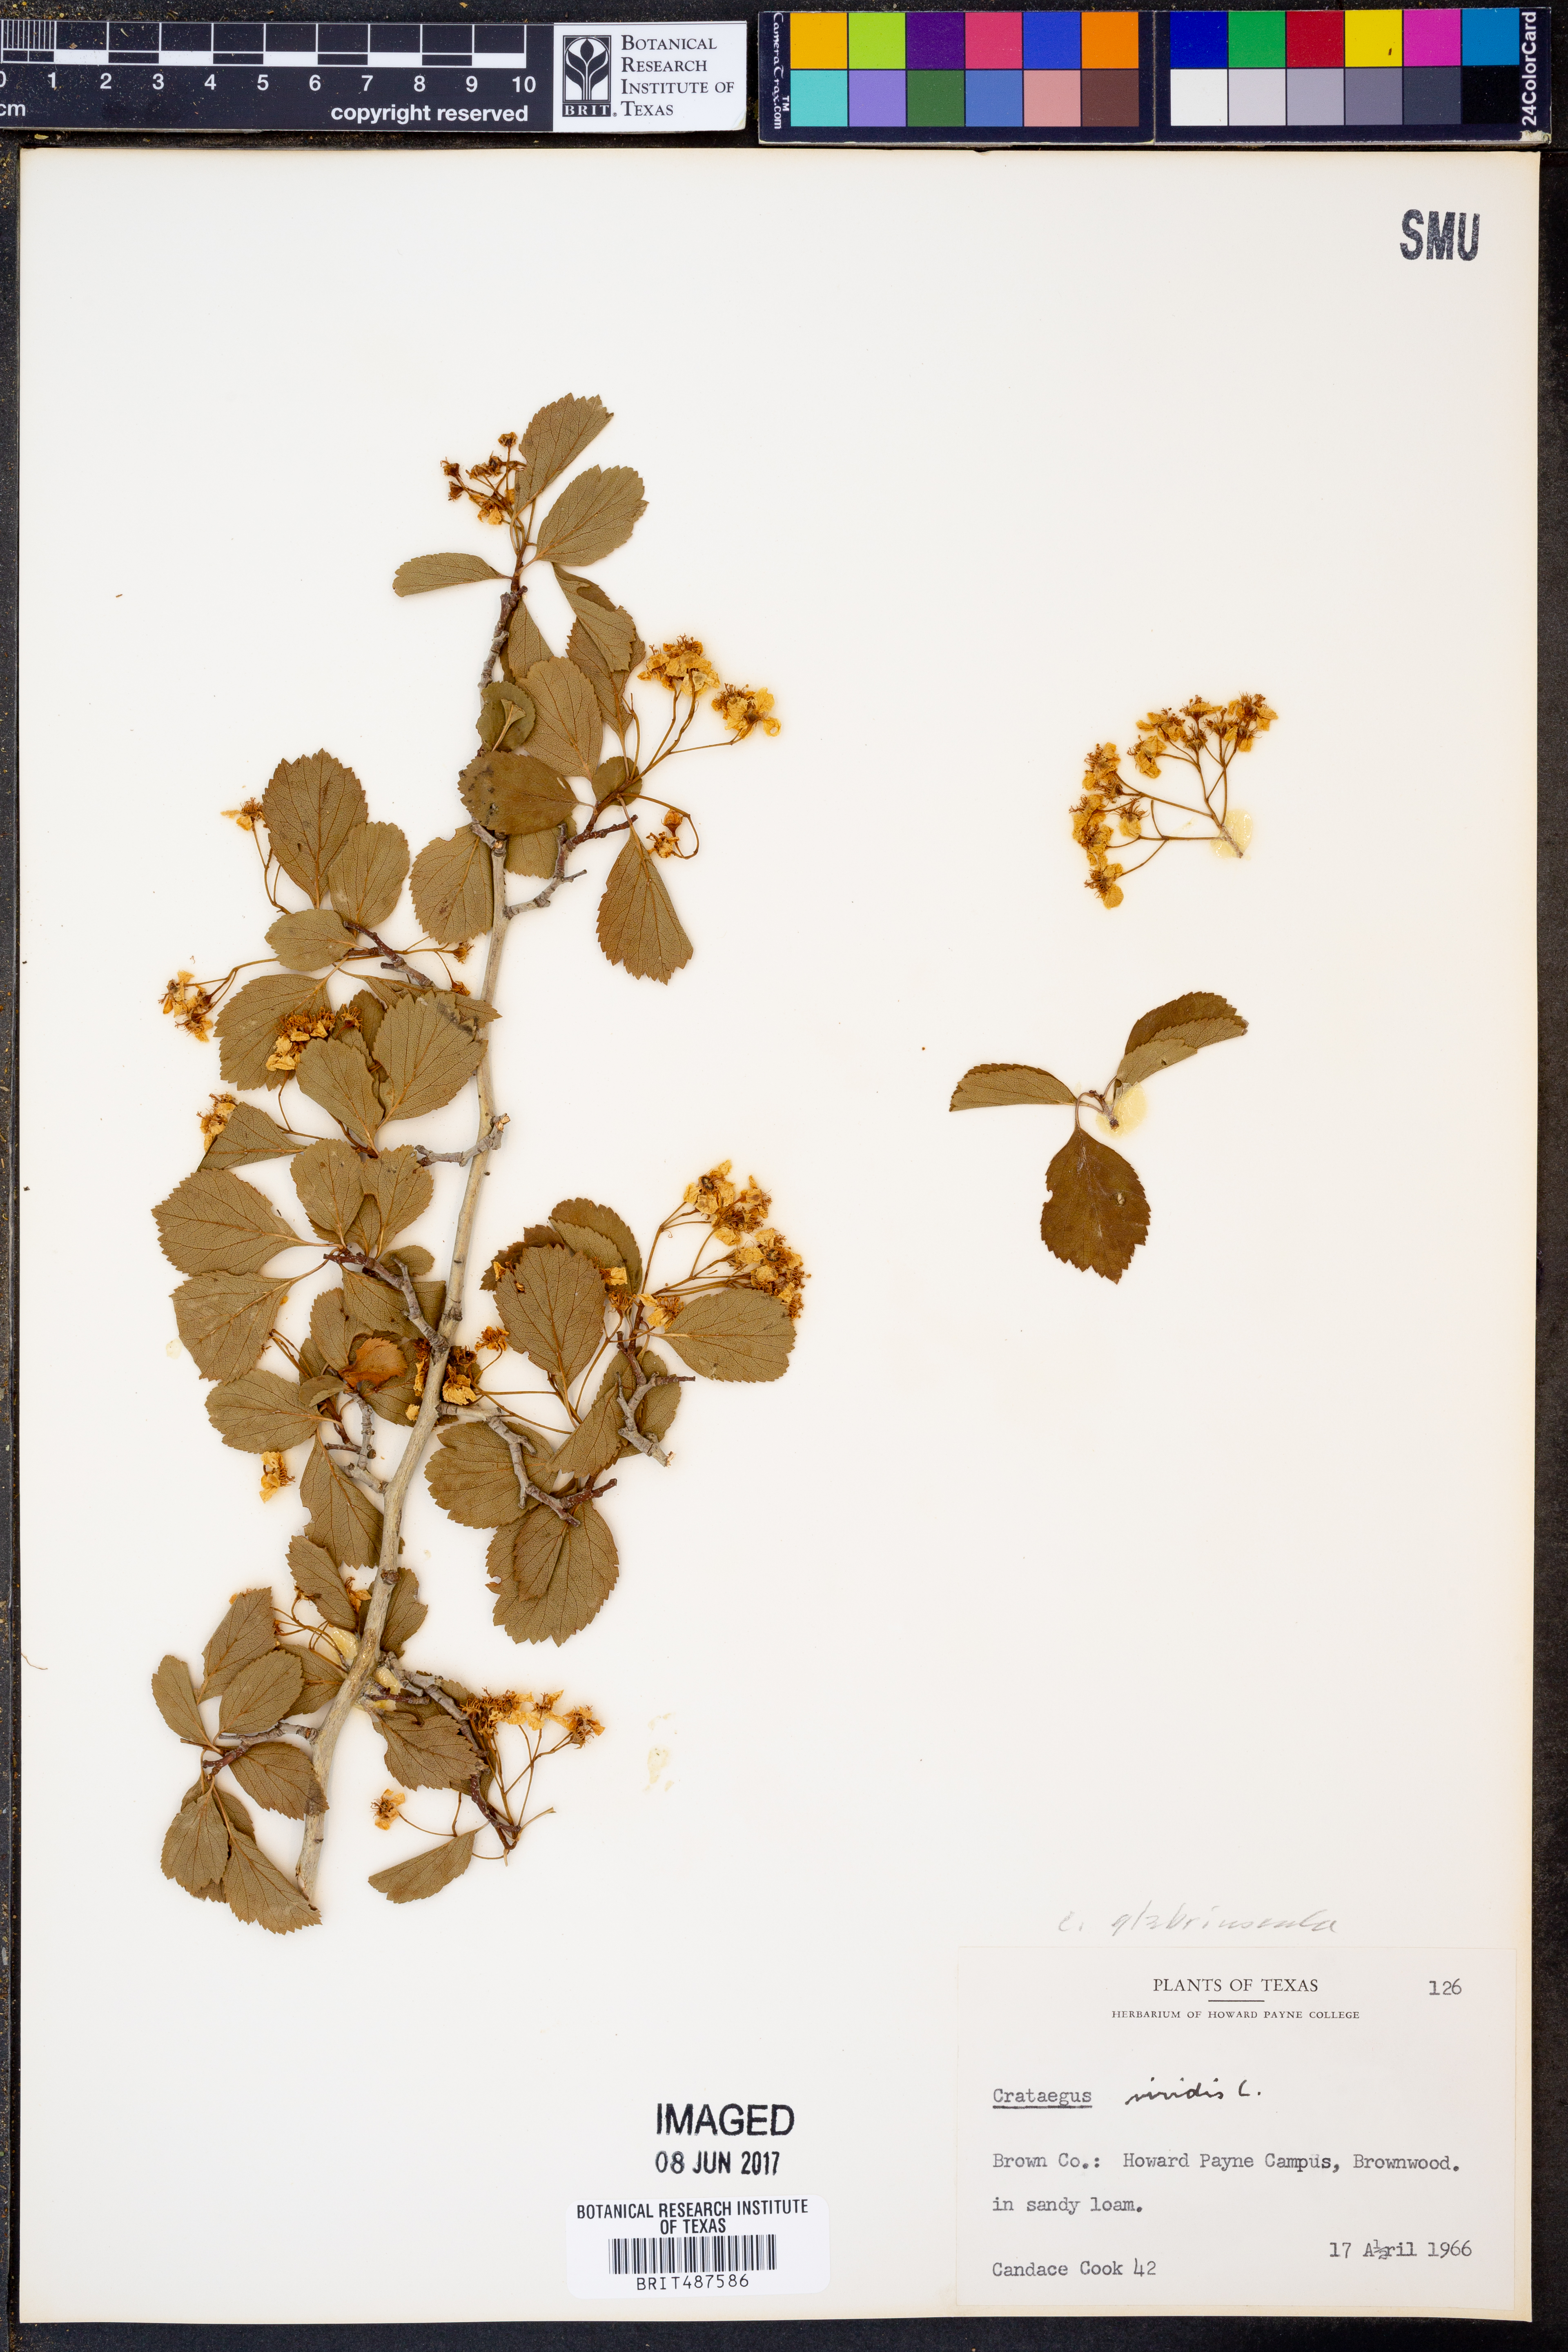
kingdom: Plantae
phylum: Tracheophyta
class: Magnoliopsida
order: Rosales
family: Rosaceae
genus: Crataegus
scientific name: Crataegus viridis
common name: Southernthorn
